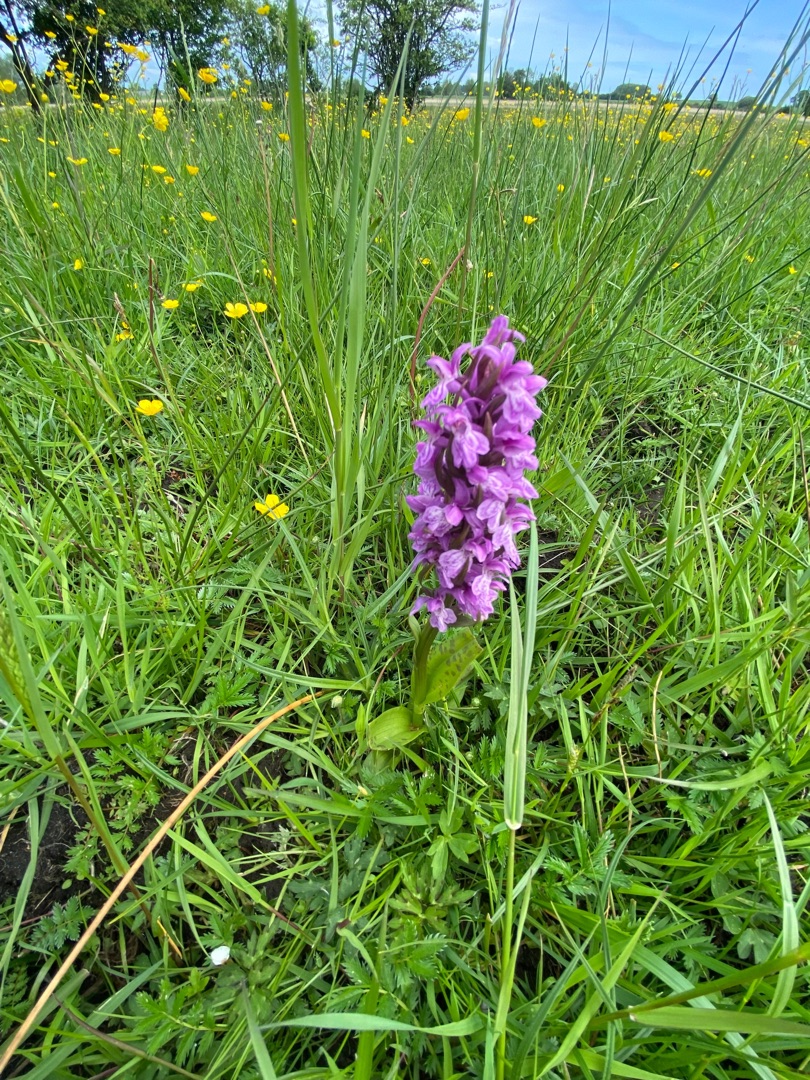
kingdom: Plantae
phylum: Tracheophyta
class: Liliopsida
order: Asparagales
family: Orchidaceae
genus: Dactylorhiza
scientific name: Dactylorhiza majalis
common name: Maj-gøgeurt
